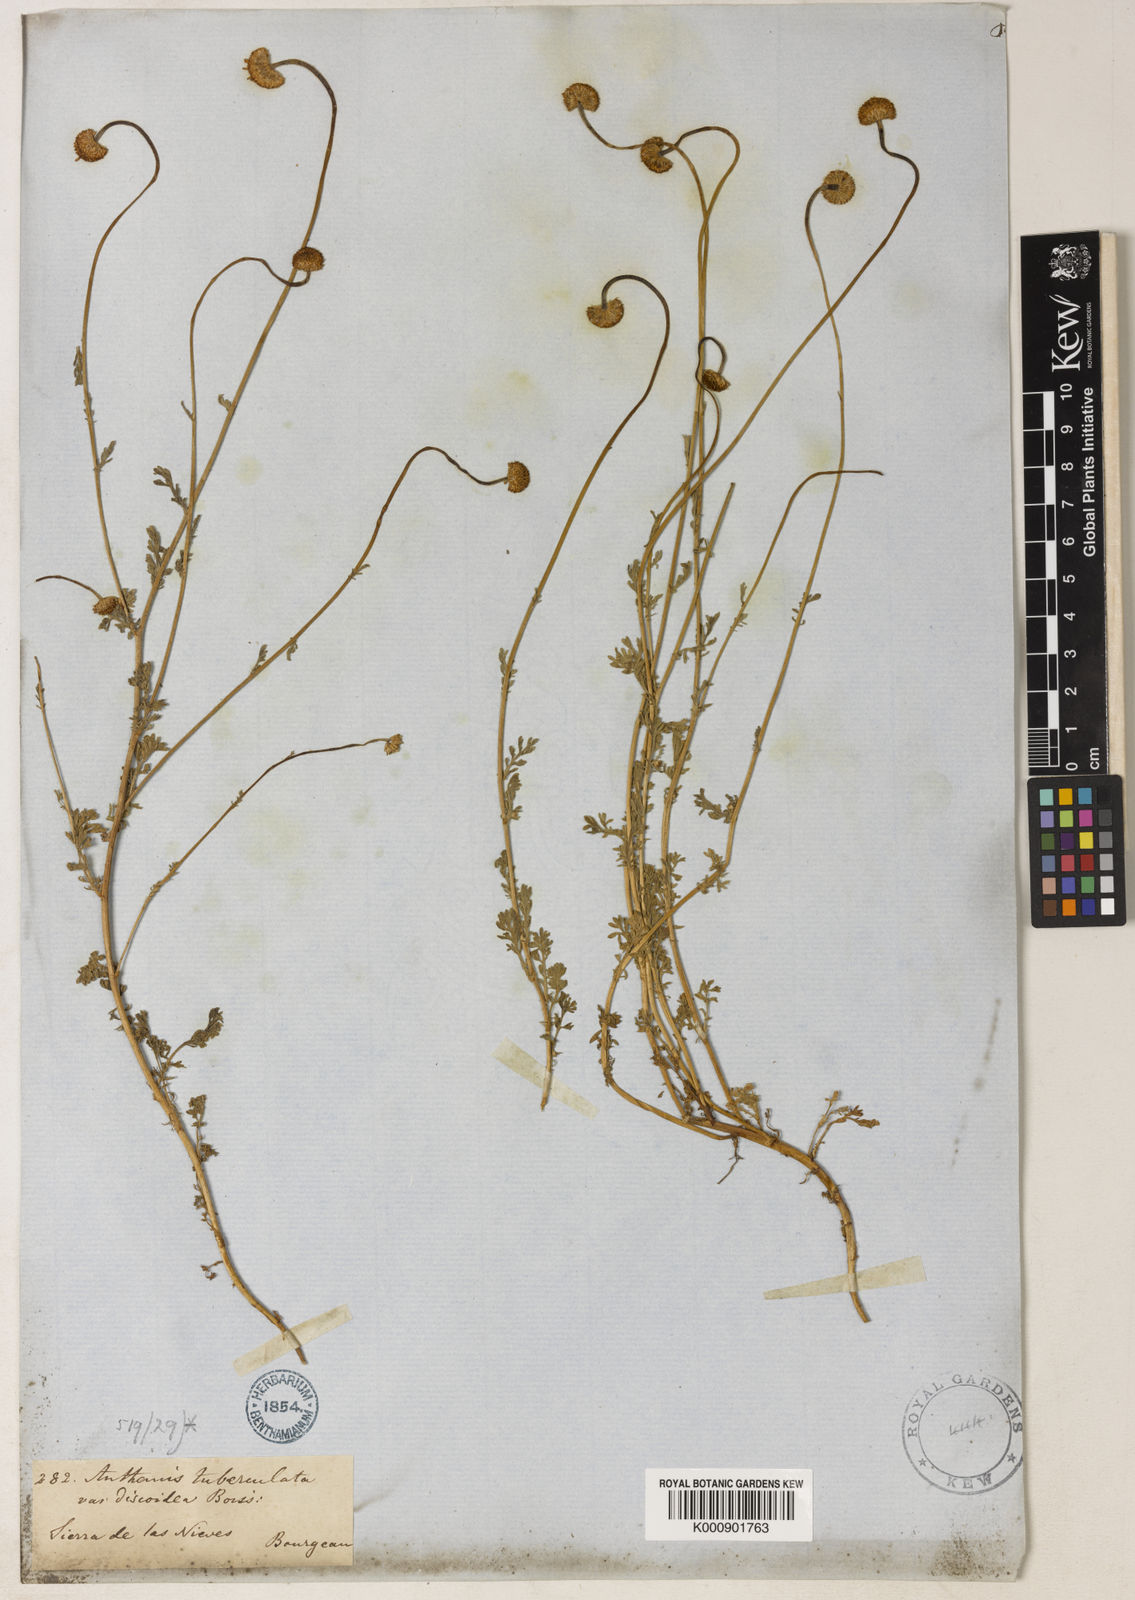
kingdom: Plantae
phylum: Tracheophyta
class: Magnoliopsida
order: Asterales
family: Asteraceae
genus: Anthemis
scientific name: Anthemis
